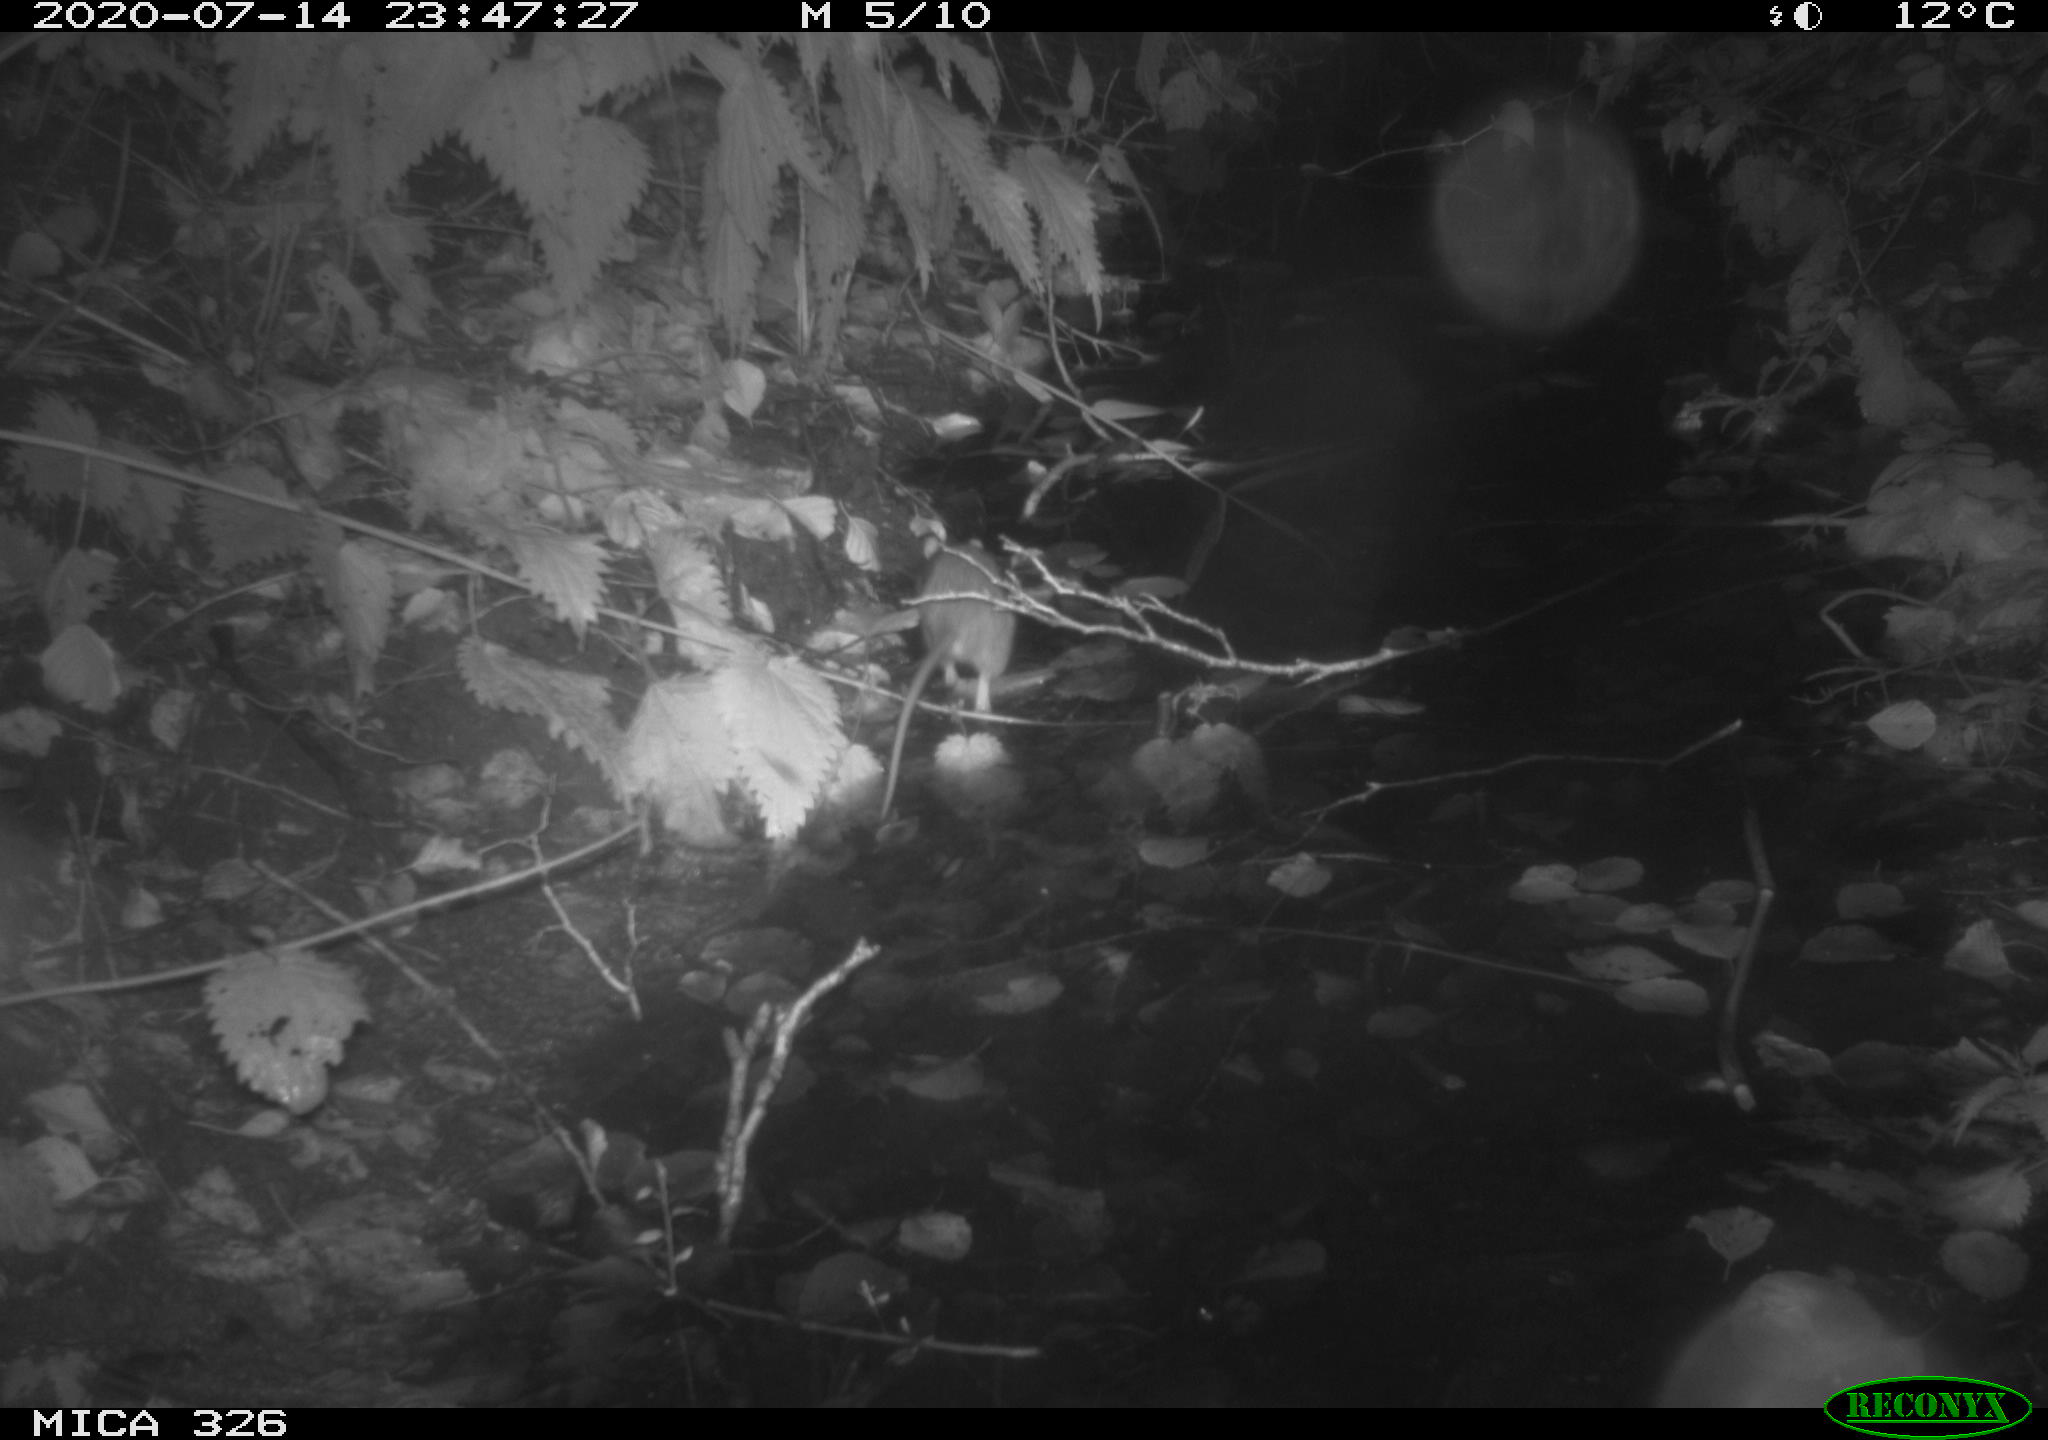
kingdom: Animalia
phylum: Chordata
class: Mammalia
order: Rodentia
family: Muridae
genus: Rattus
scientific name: Rattus norvegicus
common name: Brown rat
